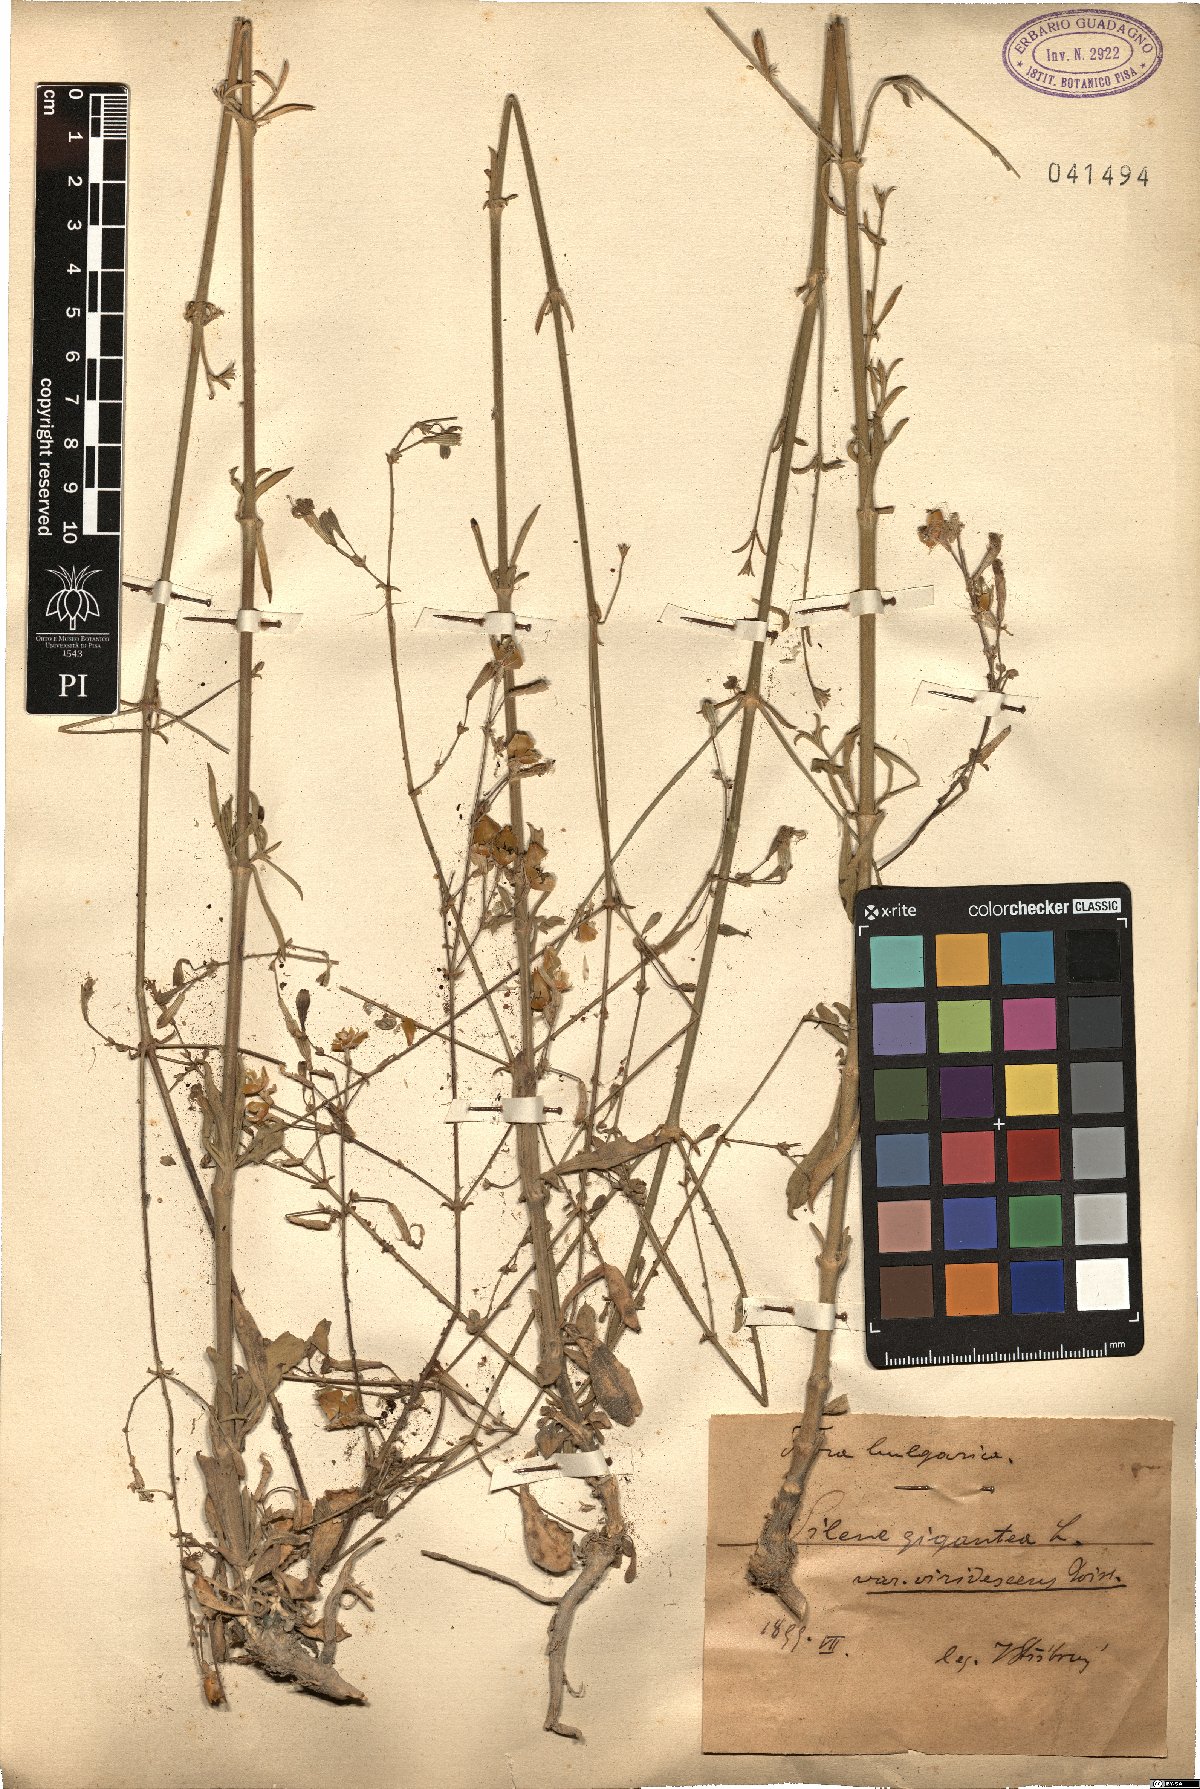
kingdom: Plantae
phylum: Tracheophyta
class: Magnoliopsida
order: Caryophyllales
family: Caryophyllaceae
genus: Silene
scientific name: Silene gigantea
